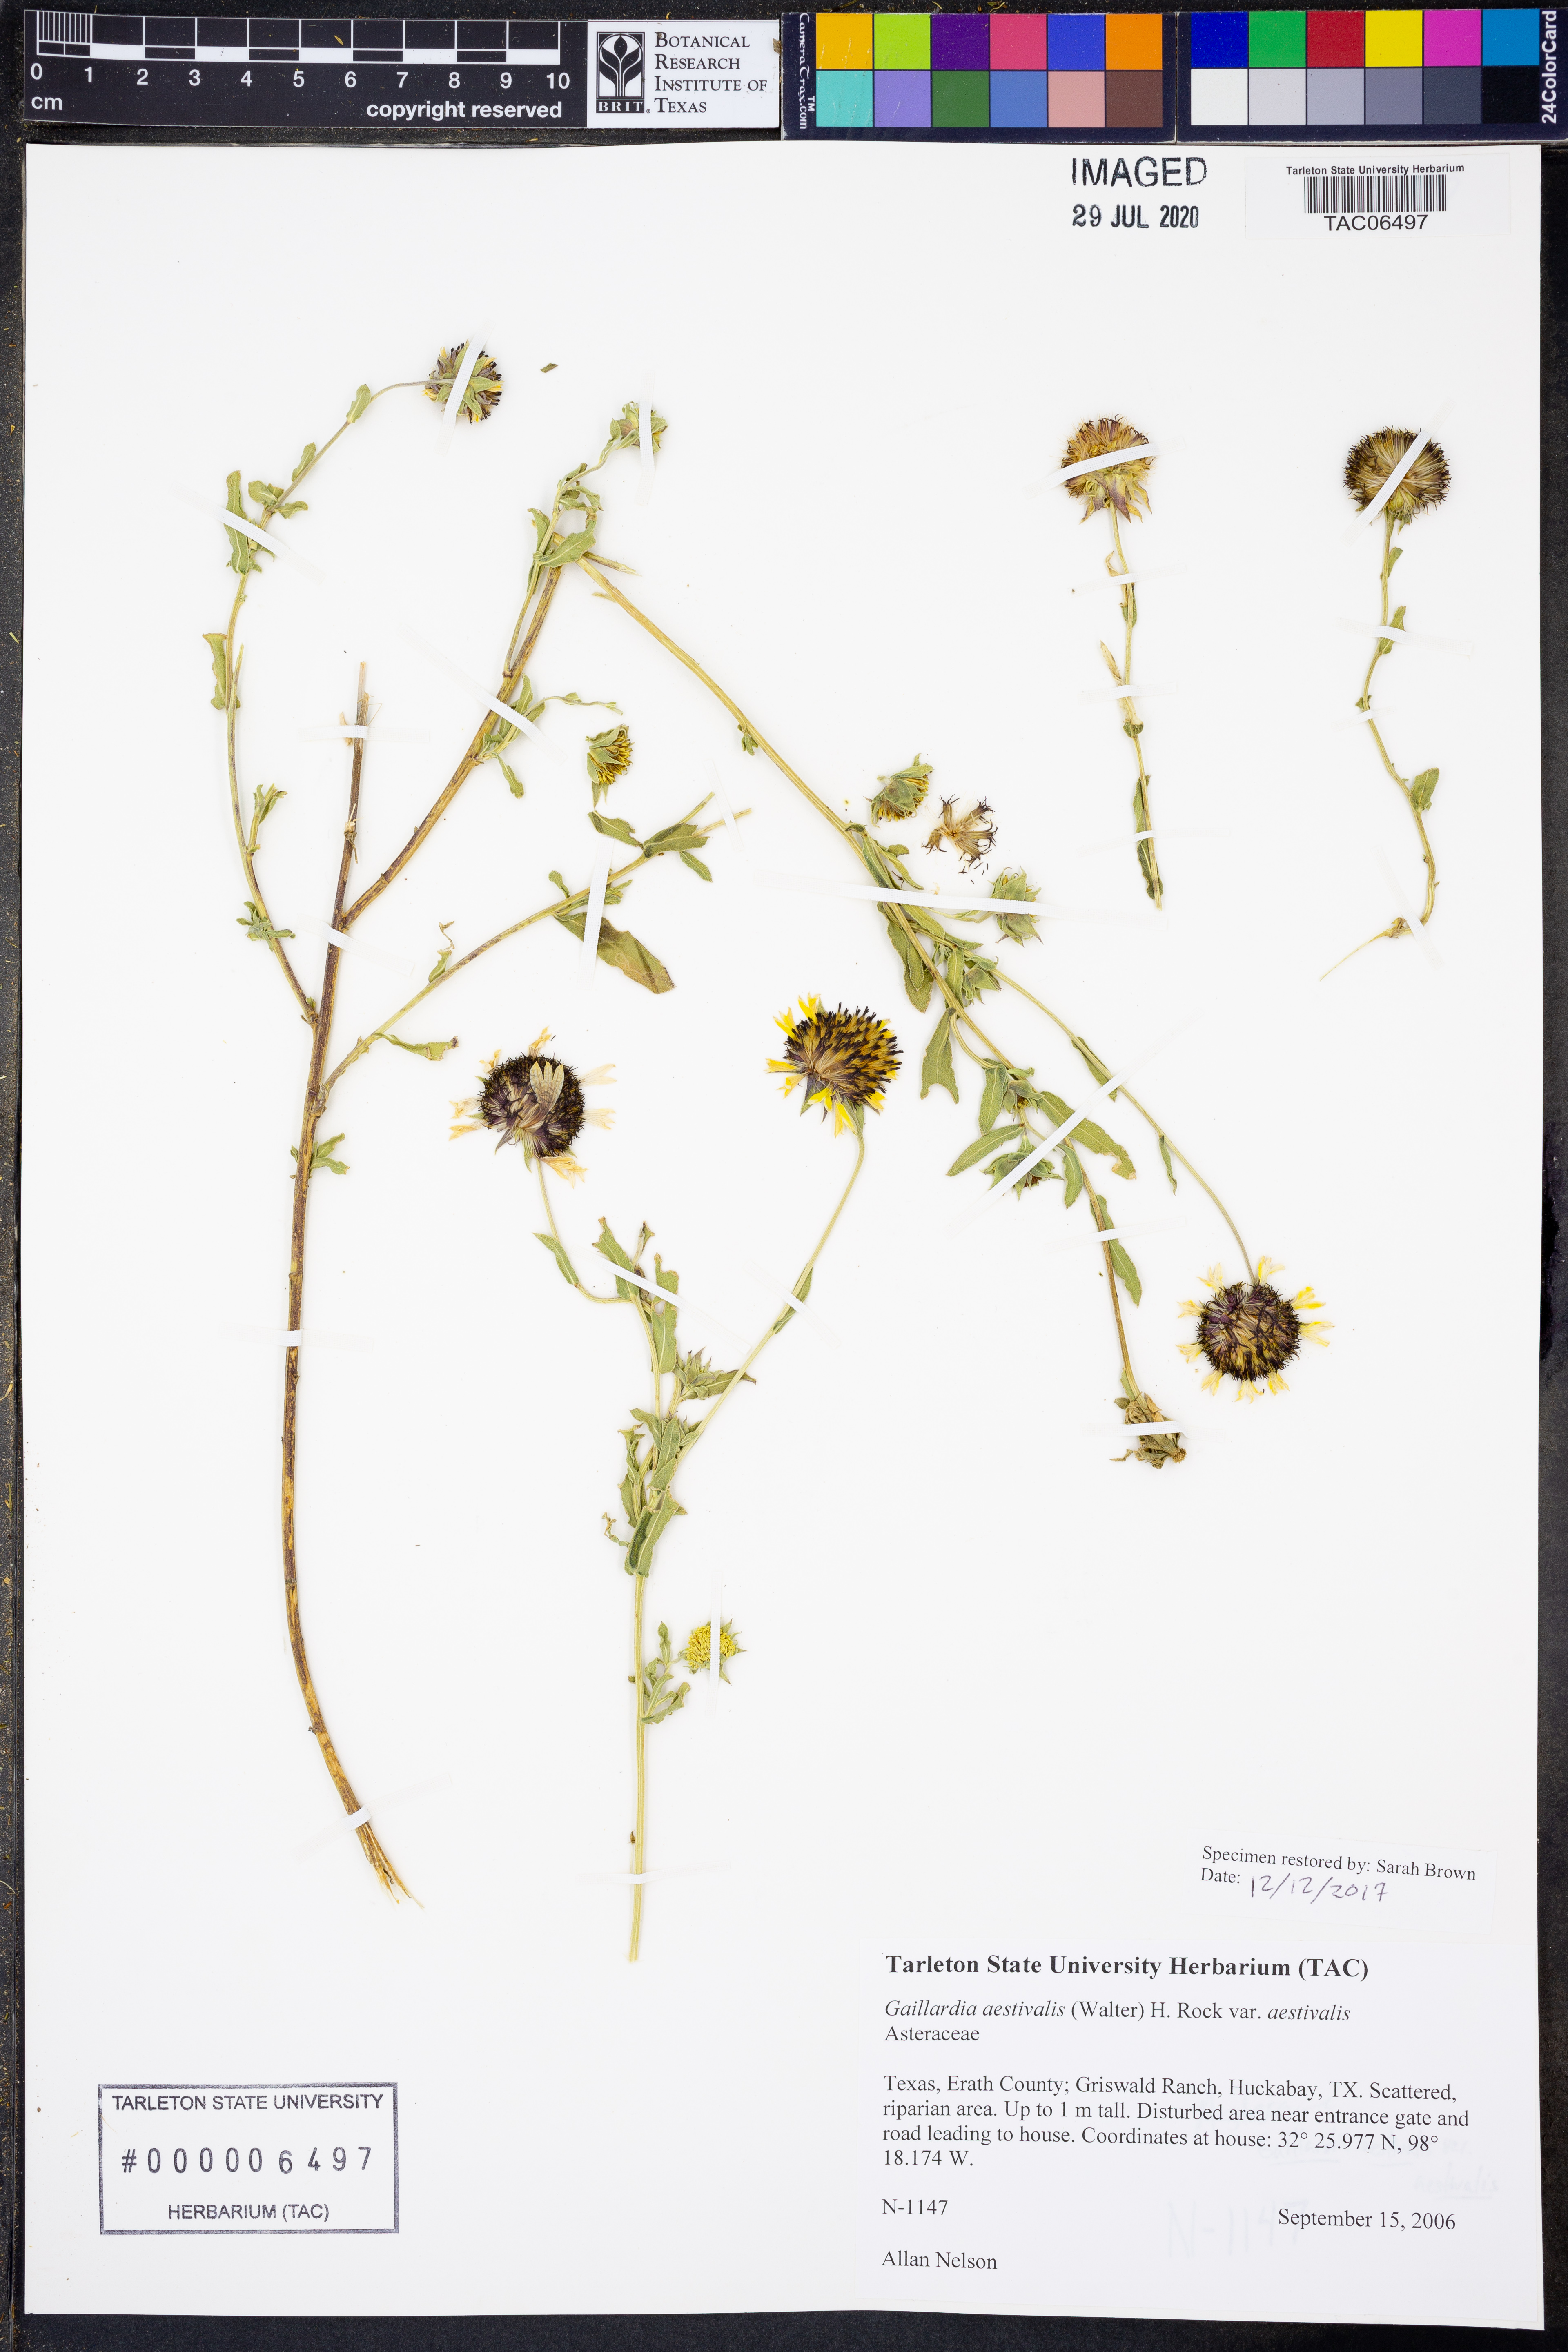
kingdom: Plantae
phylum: Tracheophyta
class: Magnoliopsida
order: Asterales
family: Asteraceae
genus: Gaillardia
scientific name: Gaillardia aestivalis
